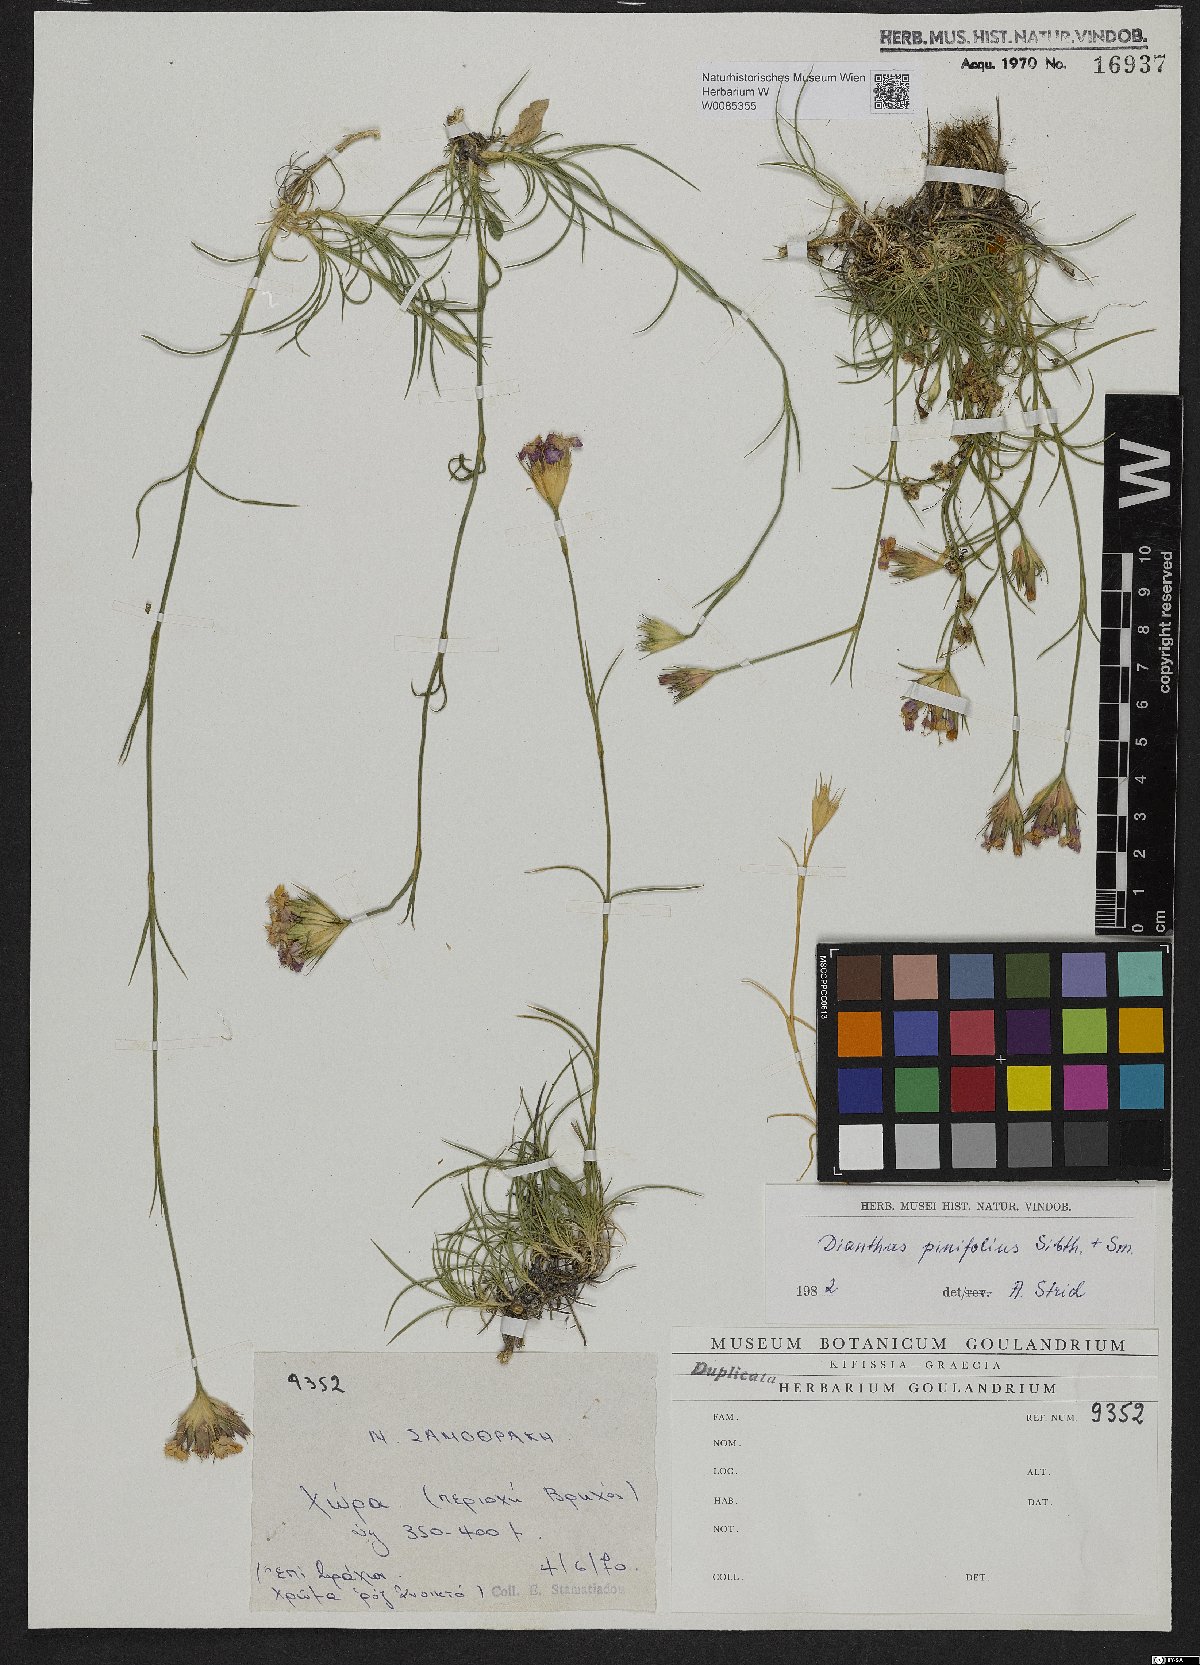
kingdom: Plantae
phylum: Tracheophyta
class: Magnoliopsida
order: Caryophyllales
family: Caryophyllaceae
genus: Dianthus
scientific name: Dianthus pinifolius
